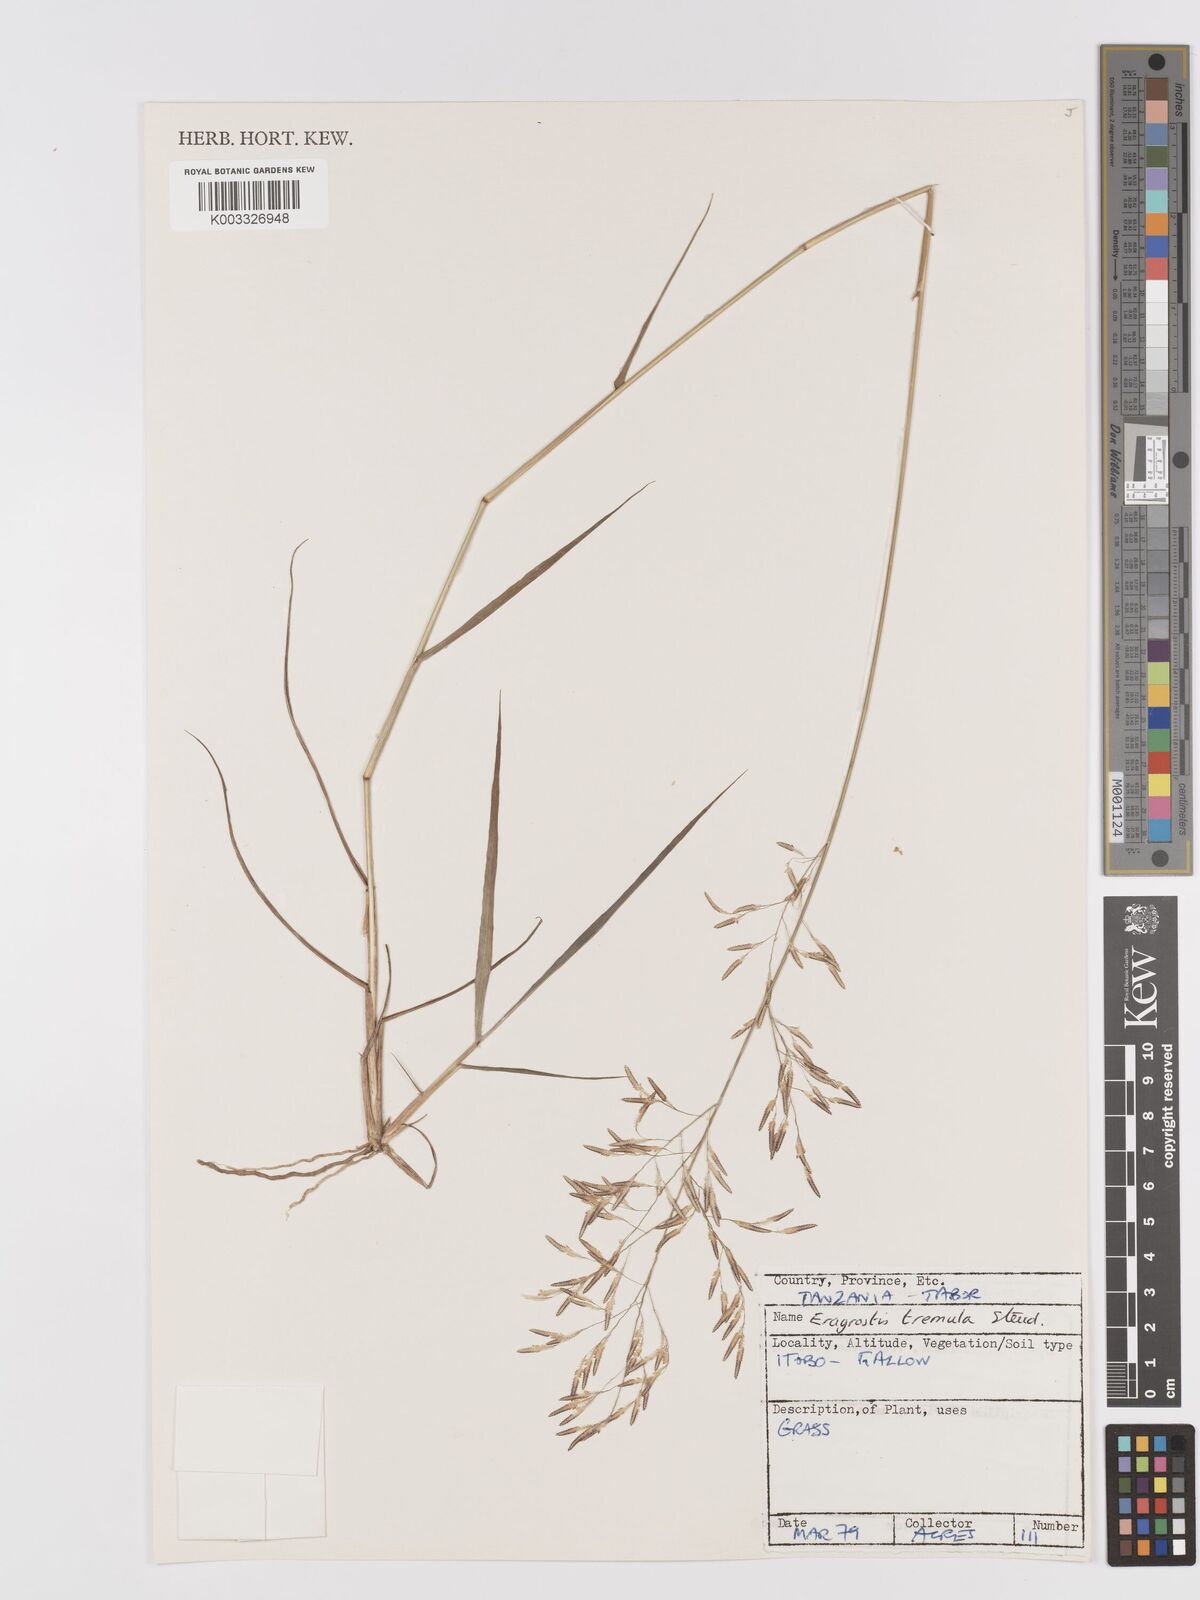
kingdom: Plantae
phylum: Tracheophyta
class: Liliopsida
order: Poales
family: Poaceae
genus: Eragrostis
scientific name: Eragrostis tremula
